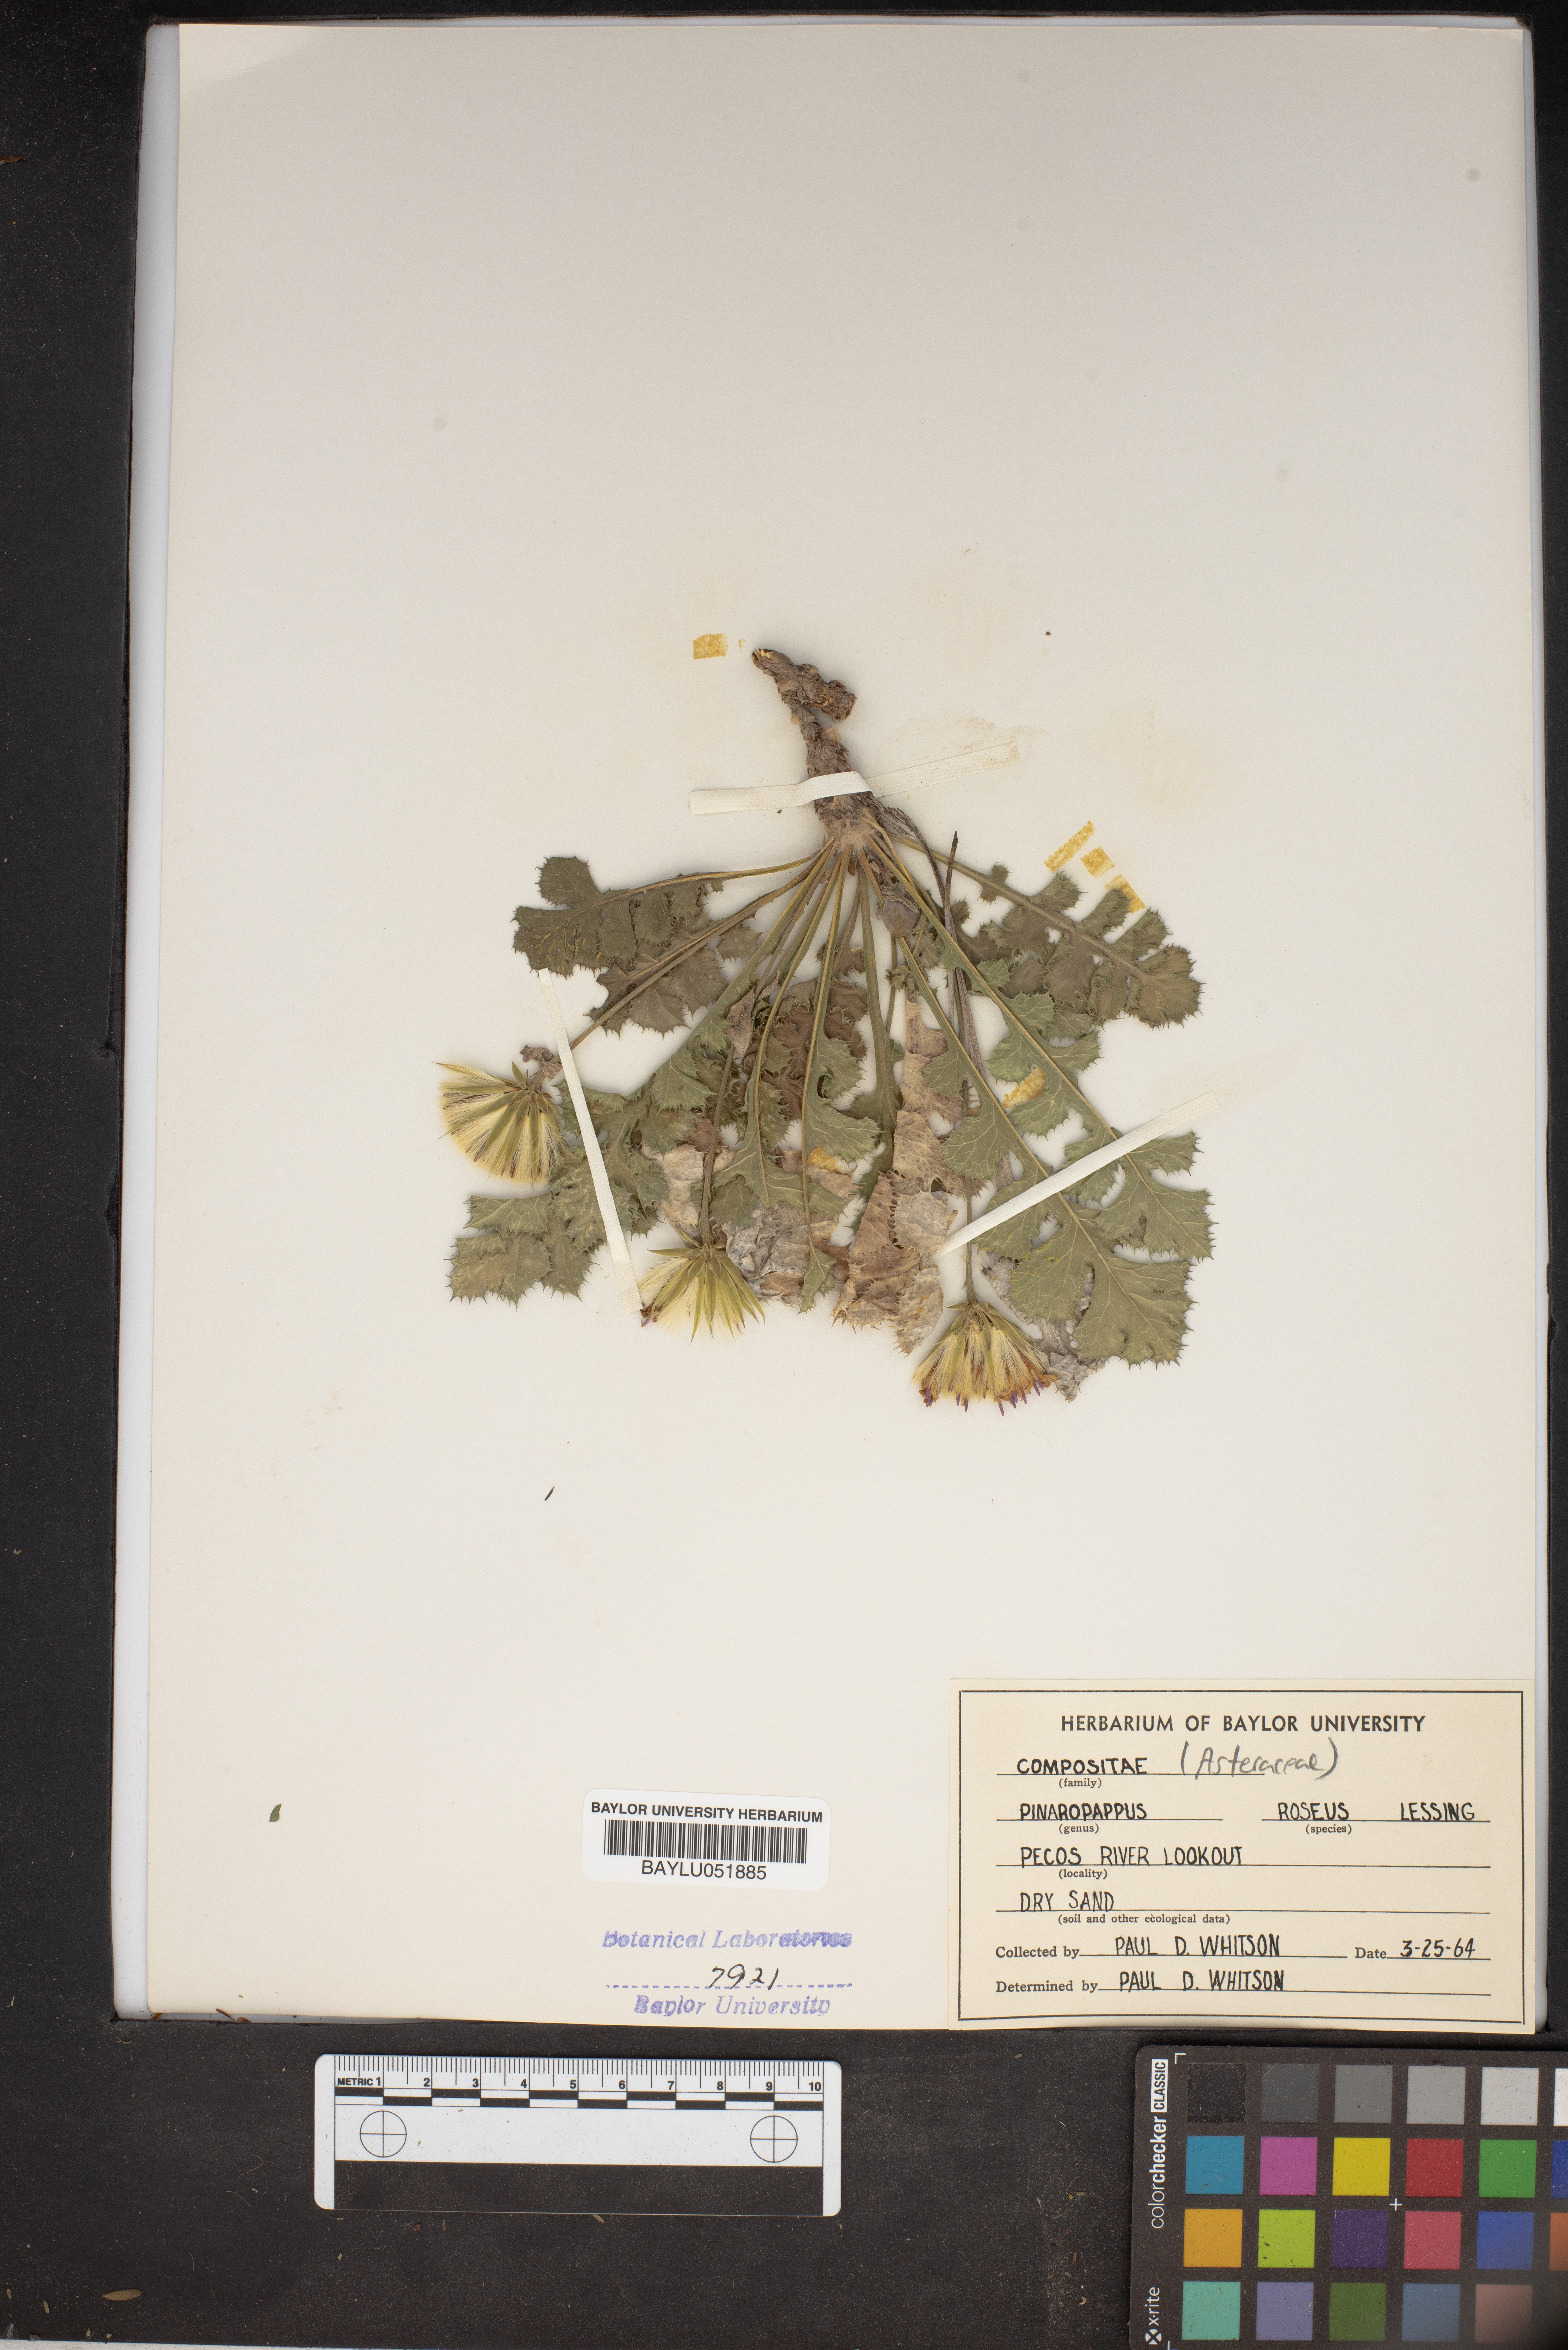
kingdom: Plantae
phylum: Tracheophyta
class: Magnoliopsida
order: Asterales
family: Asteraceae
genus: Pinaropappus
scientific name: Pinaropappus roseus
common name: Rock-lettuce
